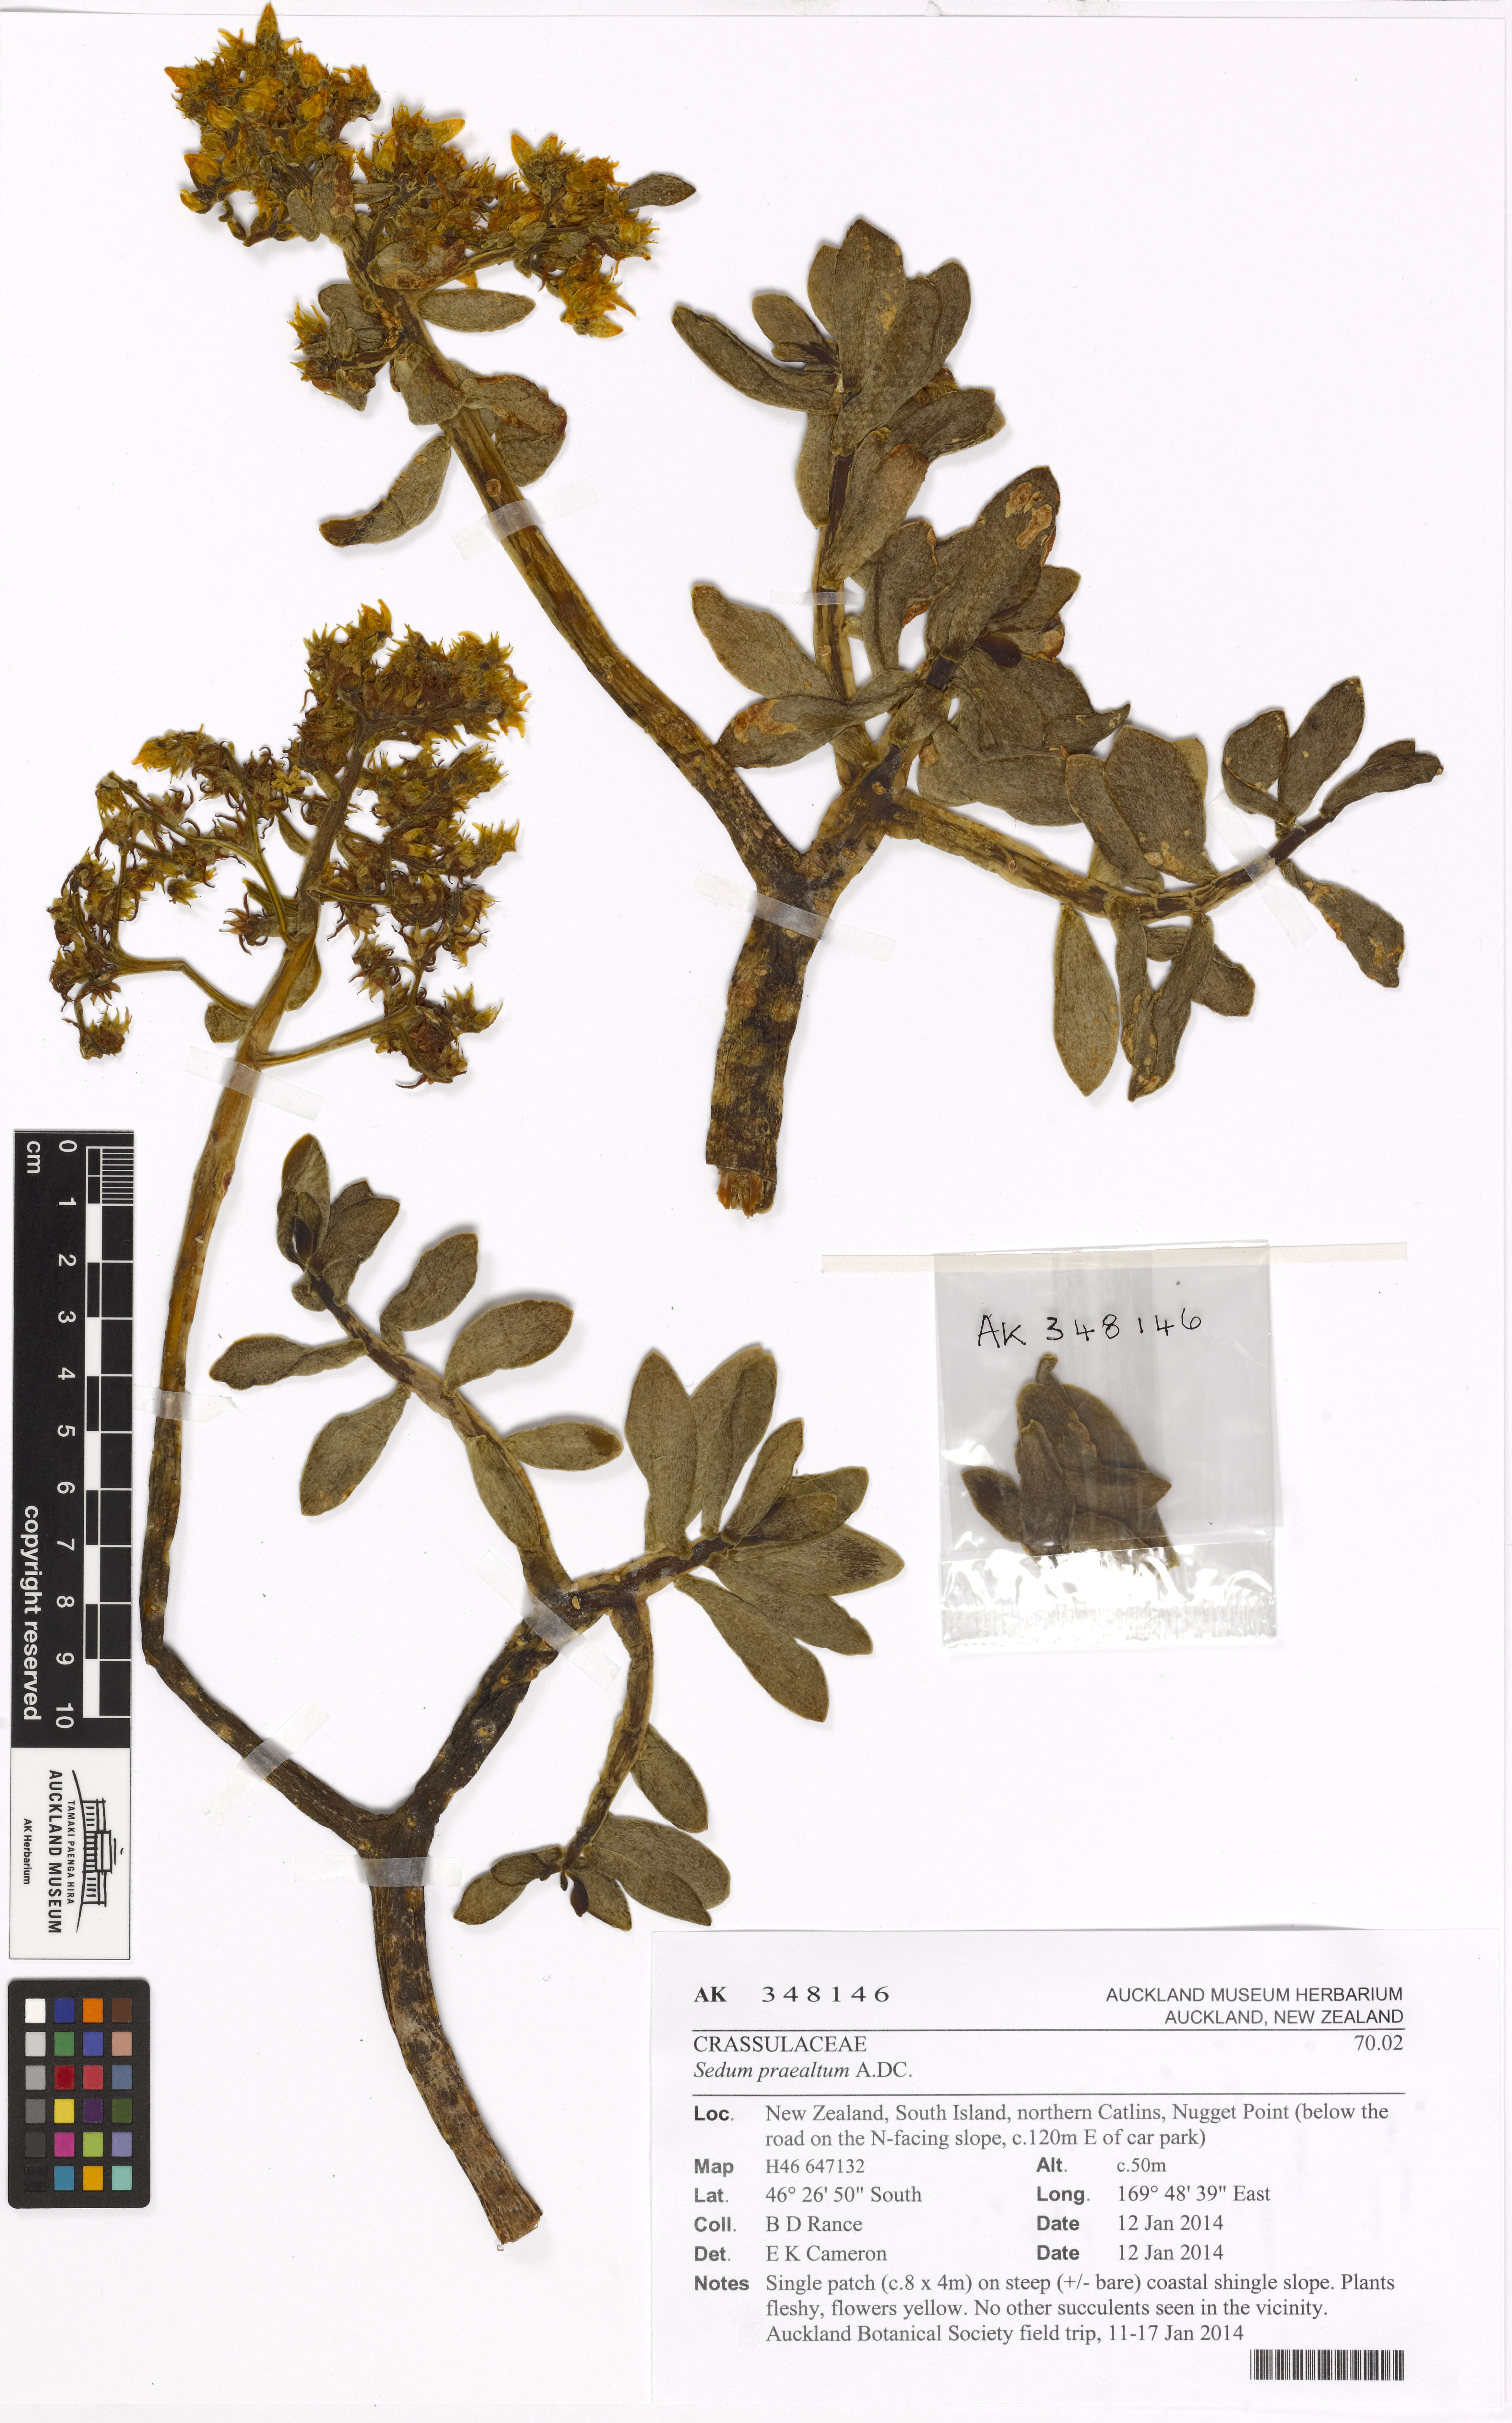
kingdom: Plantae
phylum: Tracheophyta
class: Magnoliopsida
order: Saxifragales
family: Crassulaceae
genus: Sedum
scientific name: Sedum praealtum
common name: Greater mexican-stonecrop
